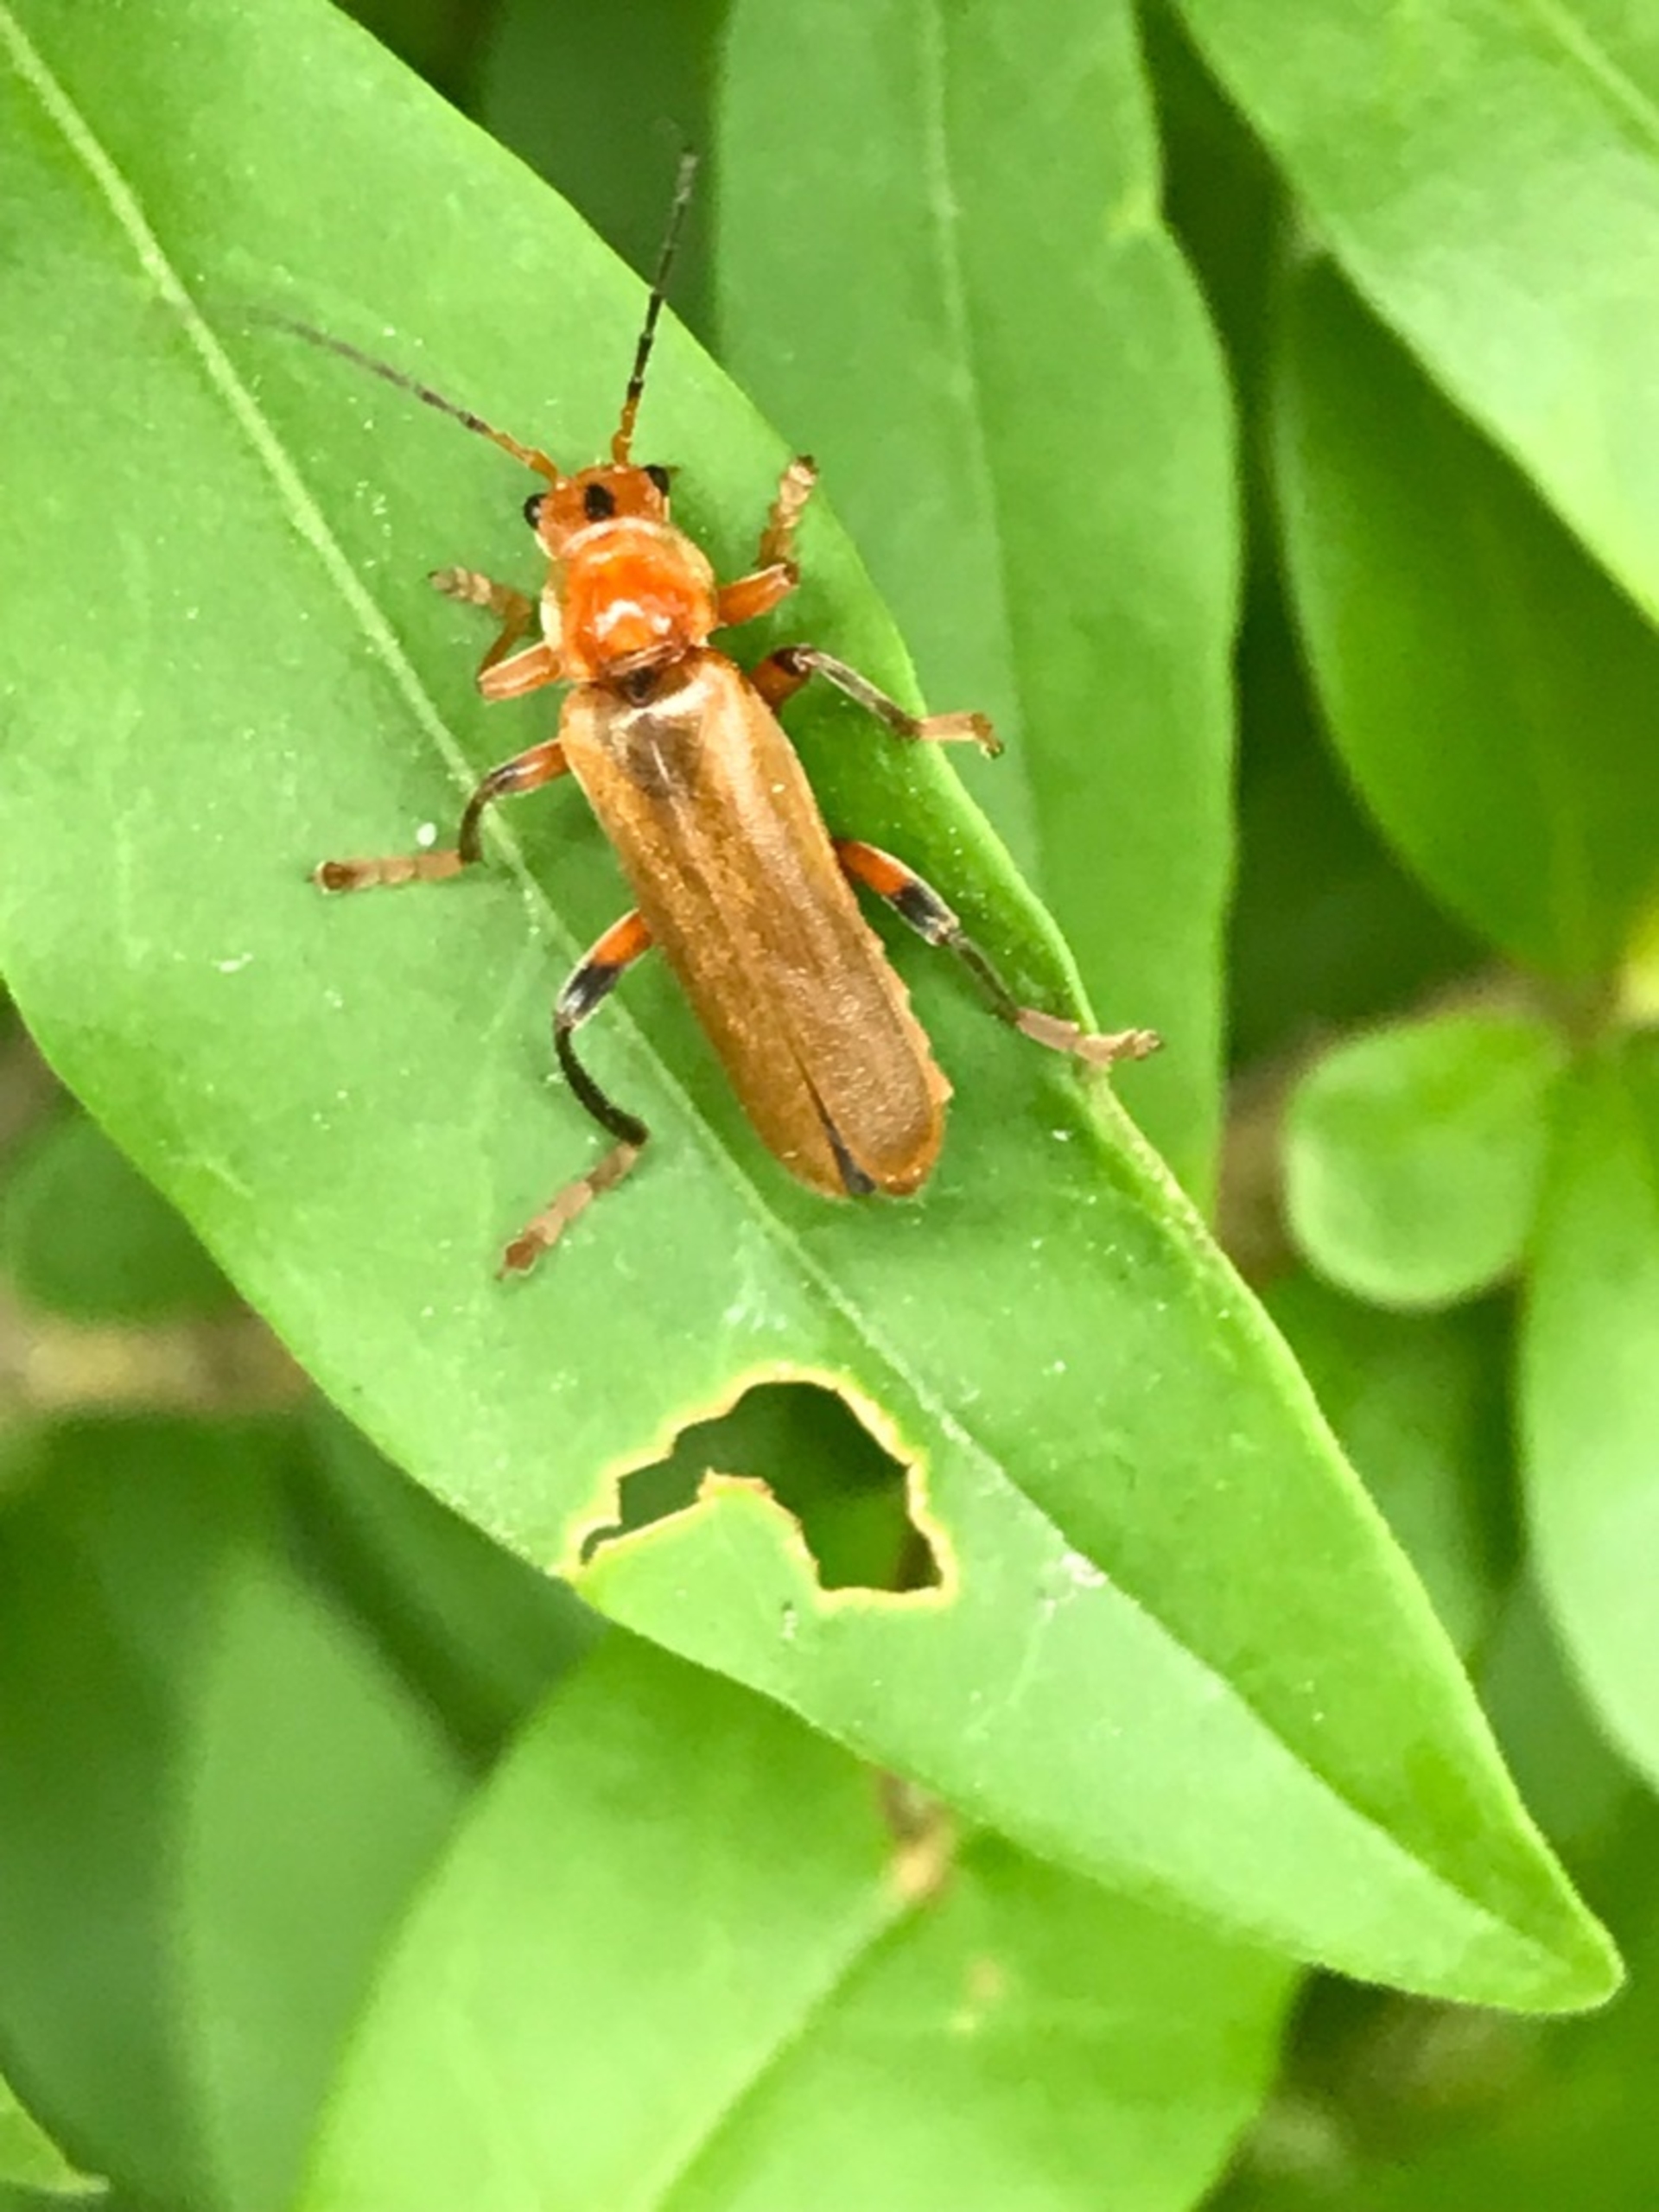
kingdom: Animalia
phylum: Arthropoda
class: Insecta
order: Coleoptera
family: Cantharidae
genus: Cantharis
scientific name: Cantharis livida
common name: Gul blødvinge
